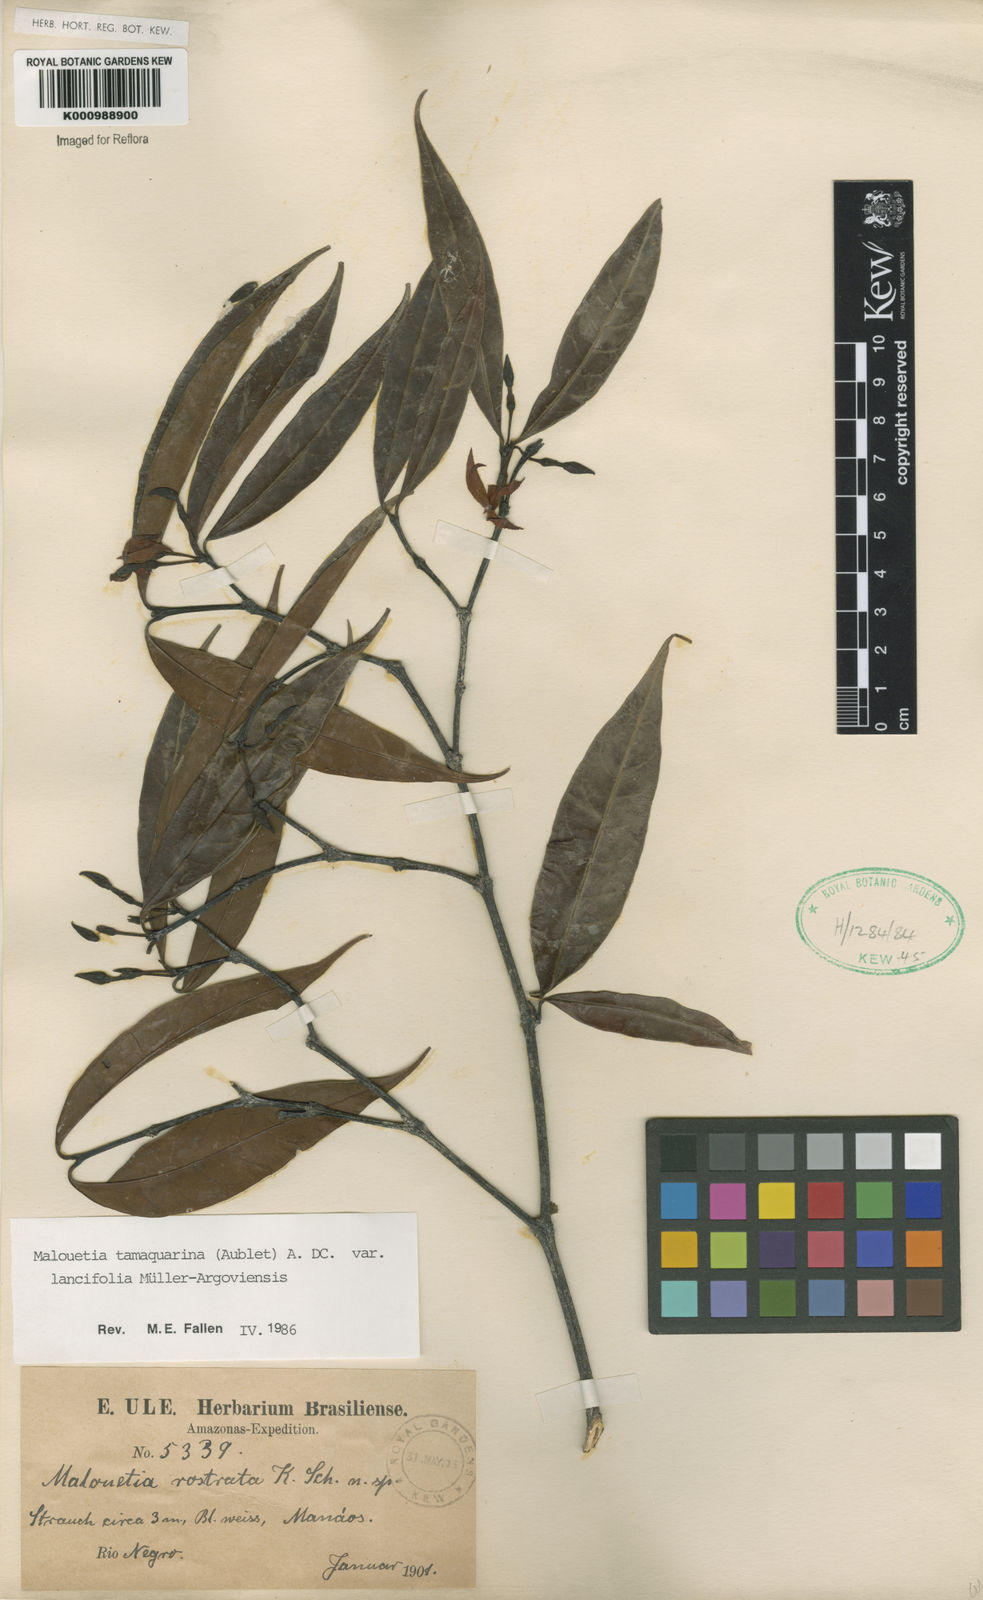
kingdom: Plantae
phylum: Tracheophyta
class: Magnoliopsida
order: Gentianales
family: Apocynaceae
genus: Malouetia
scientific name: Malouetia tamaquarina
